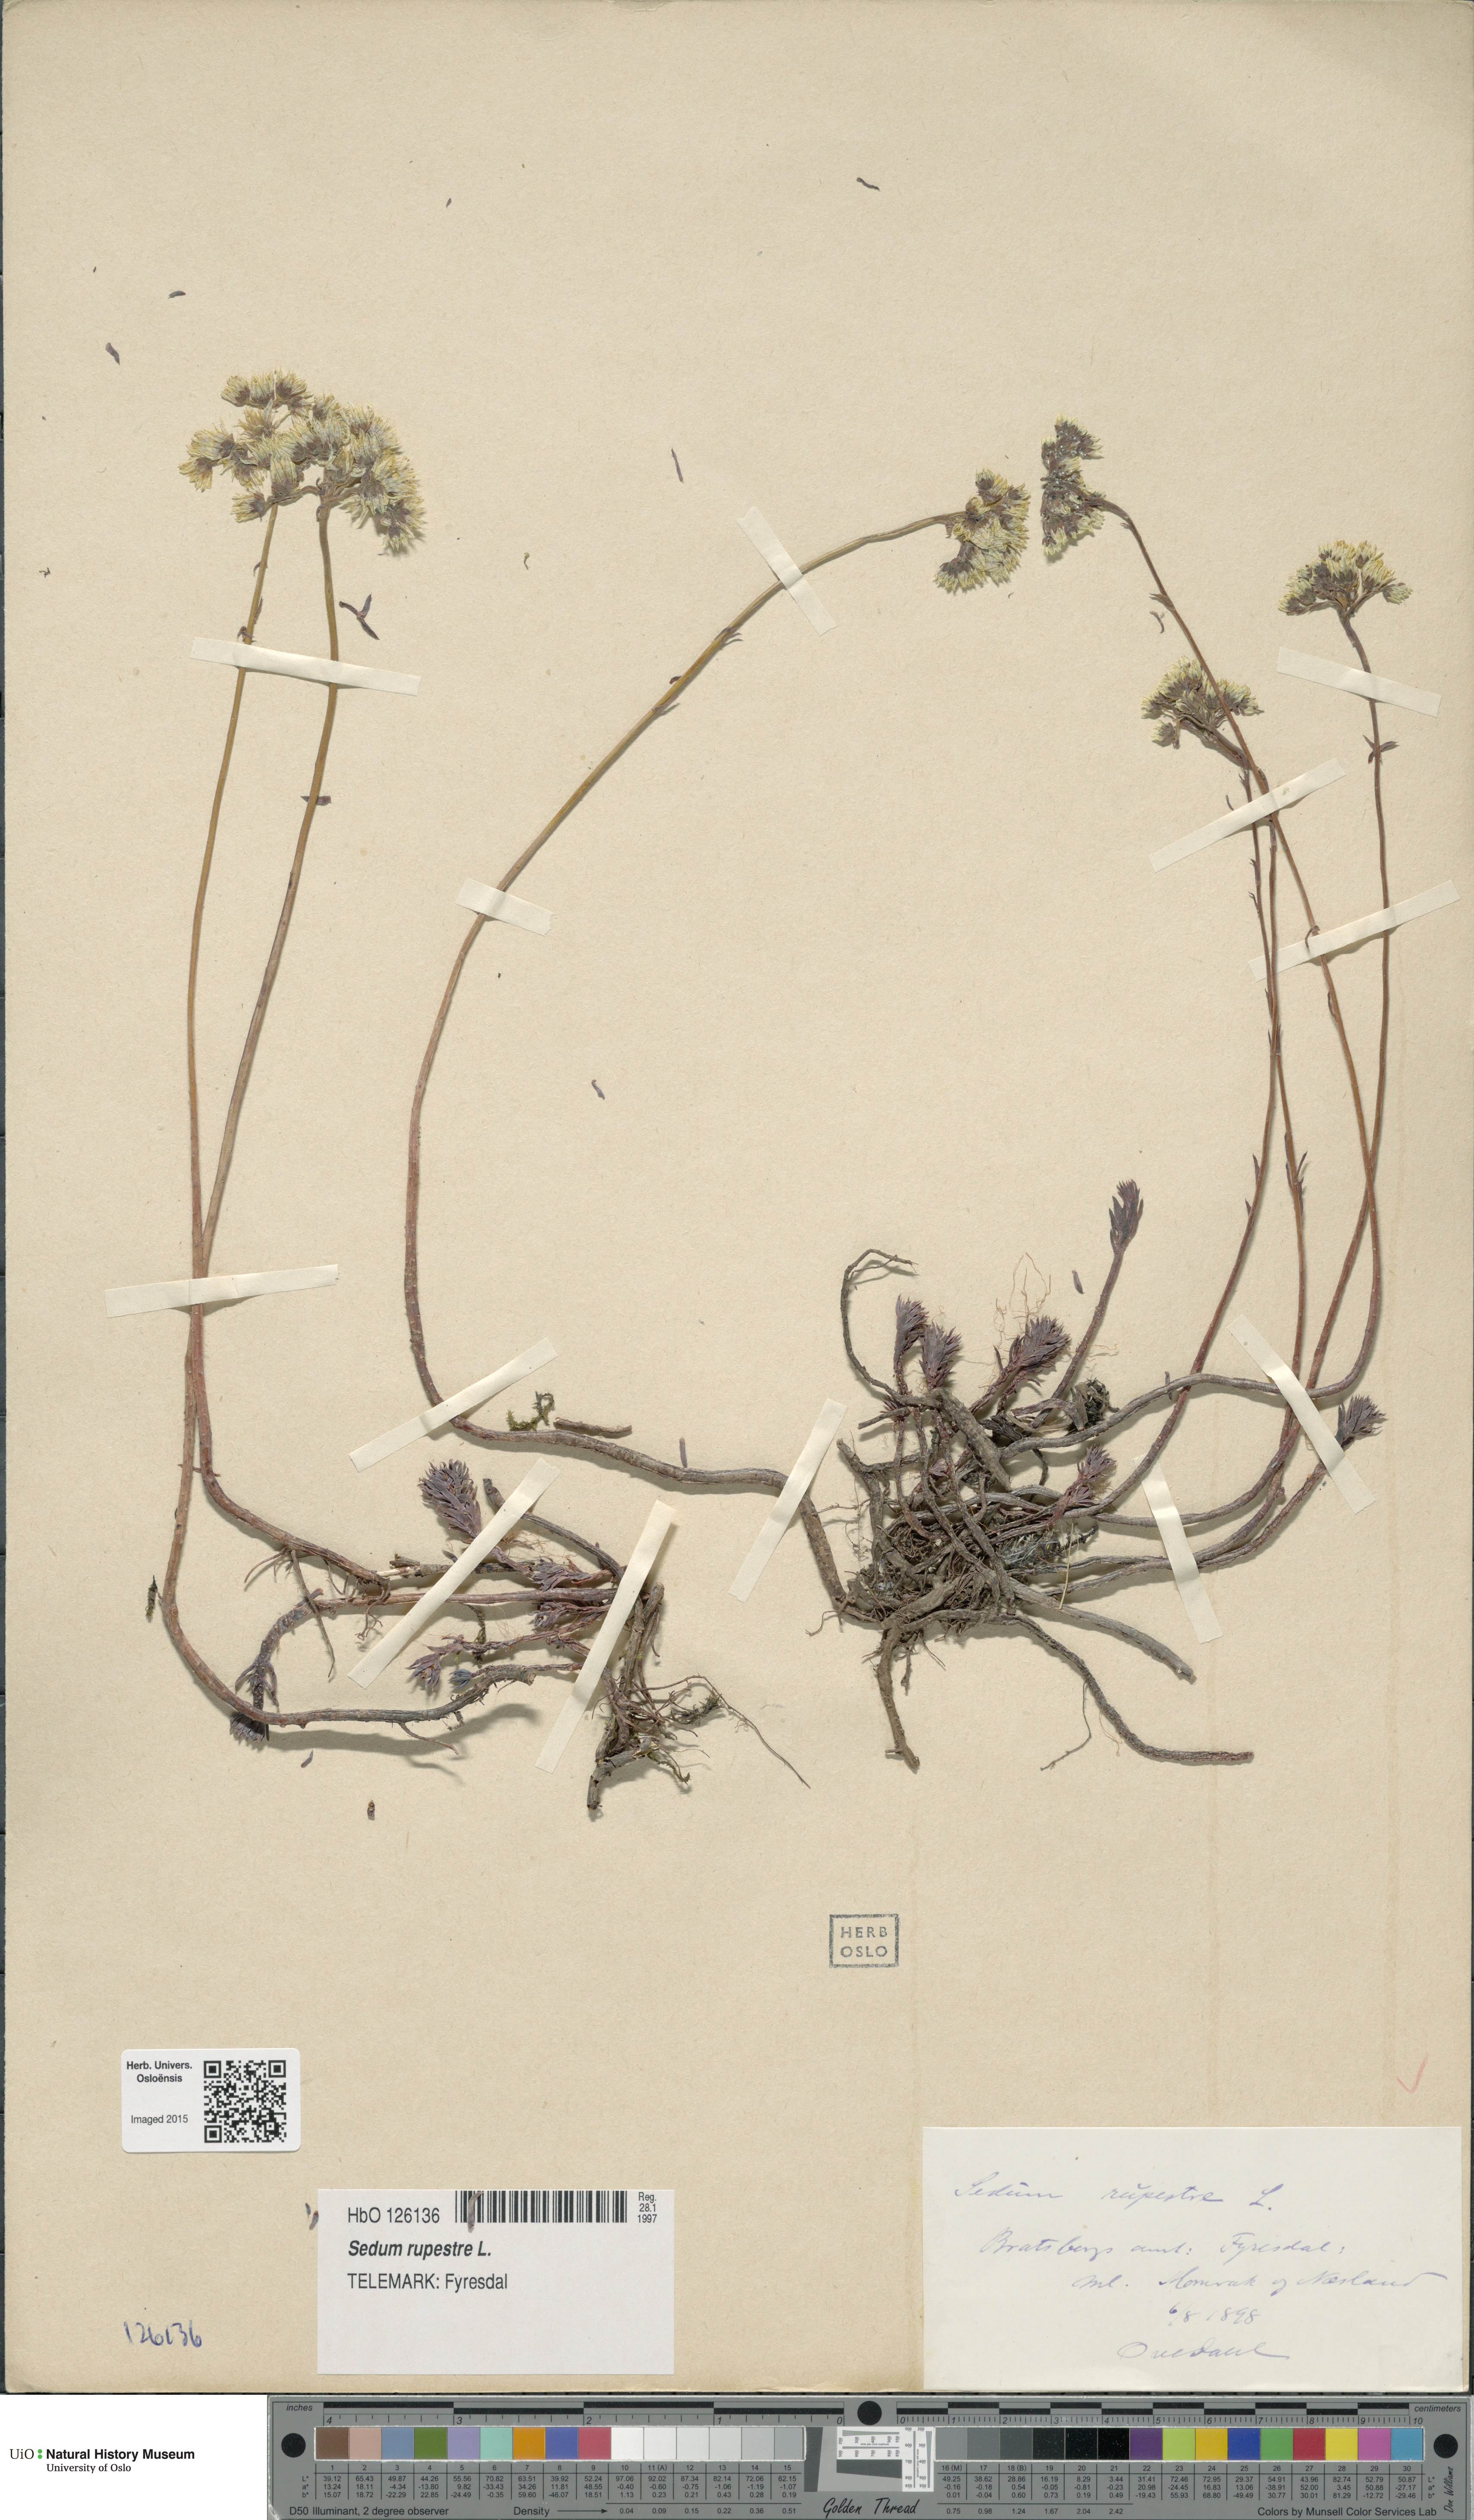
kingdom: Plantae
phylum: Tracheophyta
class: Magnoliopsida
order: Saxifragales
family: Crassulaceae
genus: Petrosedum
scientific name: Petrosedum rupestre
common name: Jenny's stonecrop
